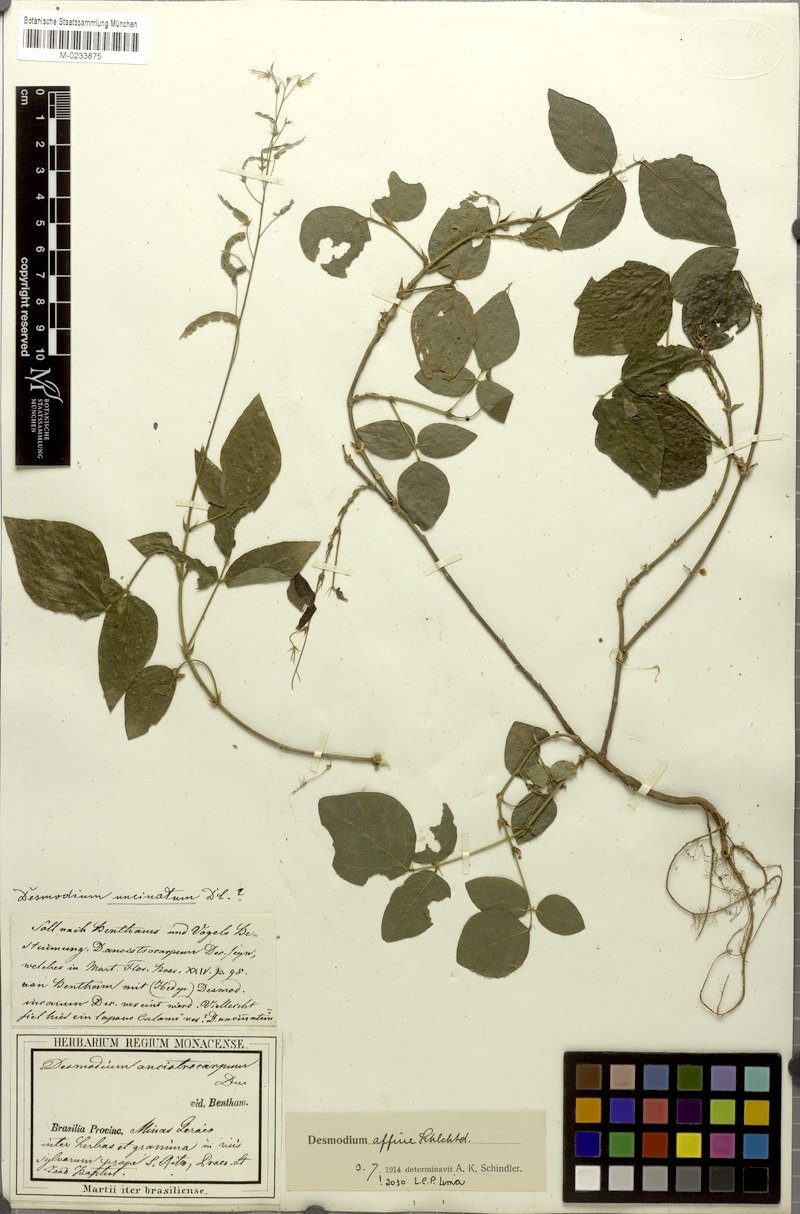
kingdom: Plantae
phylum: Tracheophyta
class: Magnoliopsida
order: Fabales
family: Fabaceae
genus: Desmodium
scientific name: Desmodium affine
